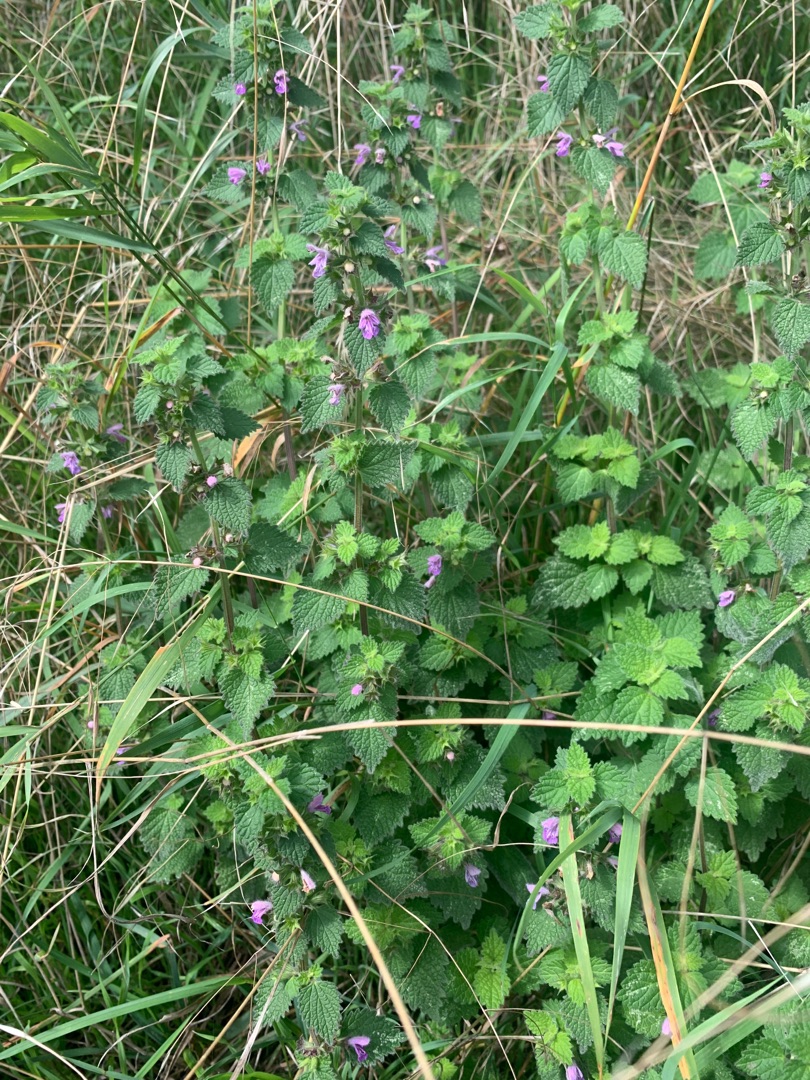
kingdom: Plantae
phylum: Tracheophyta
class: Magnoliopsida
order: Lamiales
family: Lamiaceae
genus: Ballota
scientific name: Ballota nigra
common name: Tandbæger
